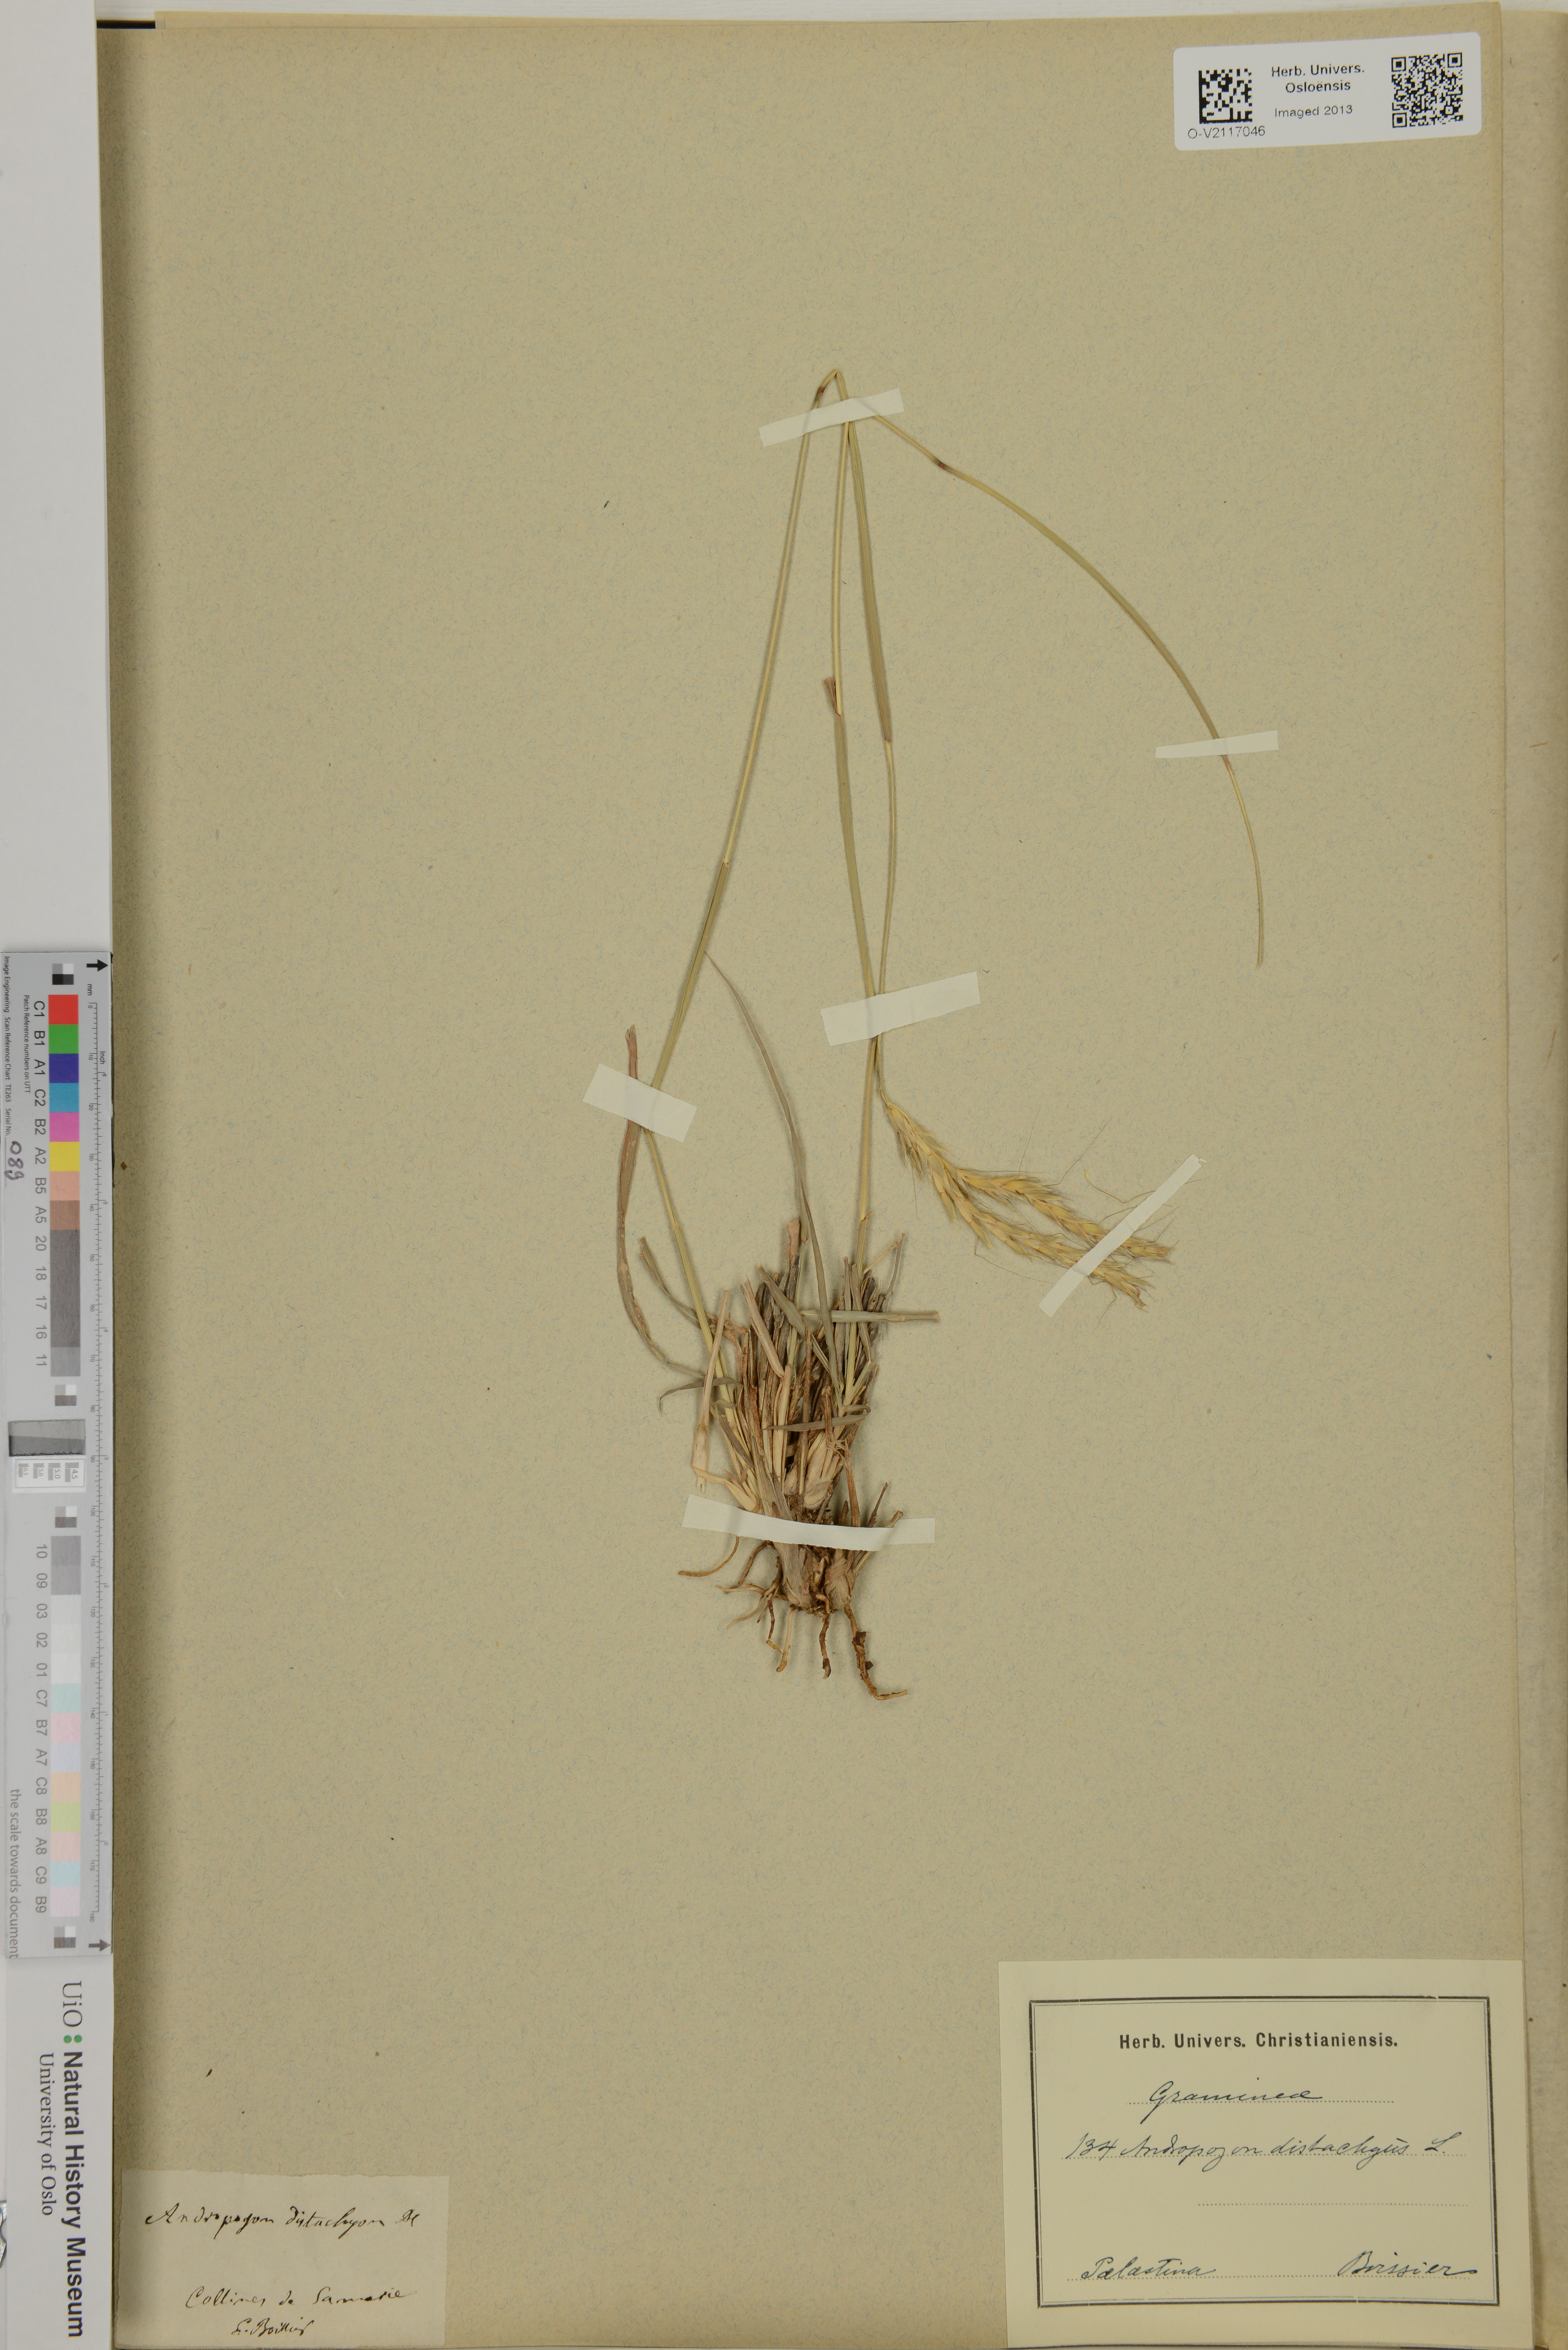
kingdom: Plantae
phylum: Tracheophyta
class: Liliopsida
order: Poales
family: Poaceae
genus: Andropogon
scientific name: Andropogon distachyos
